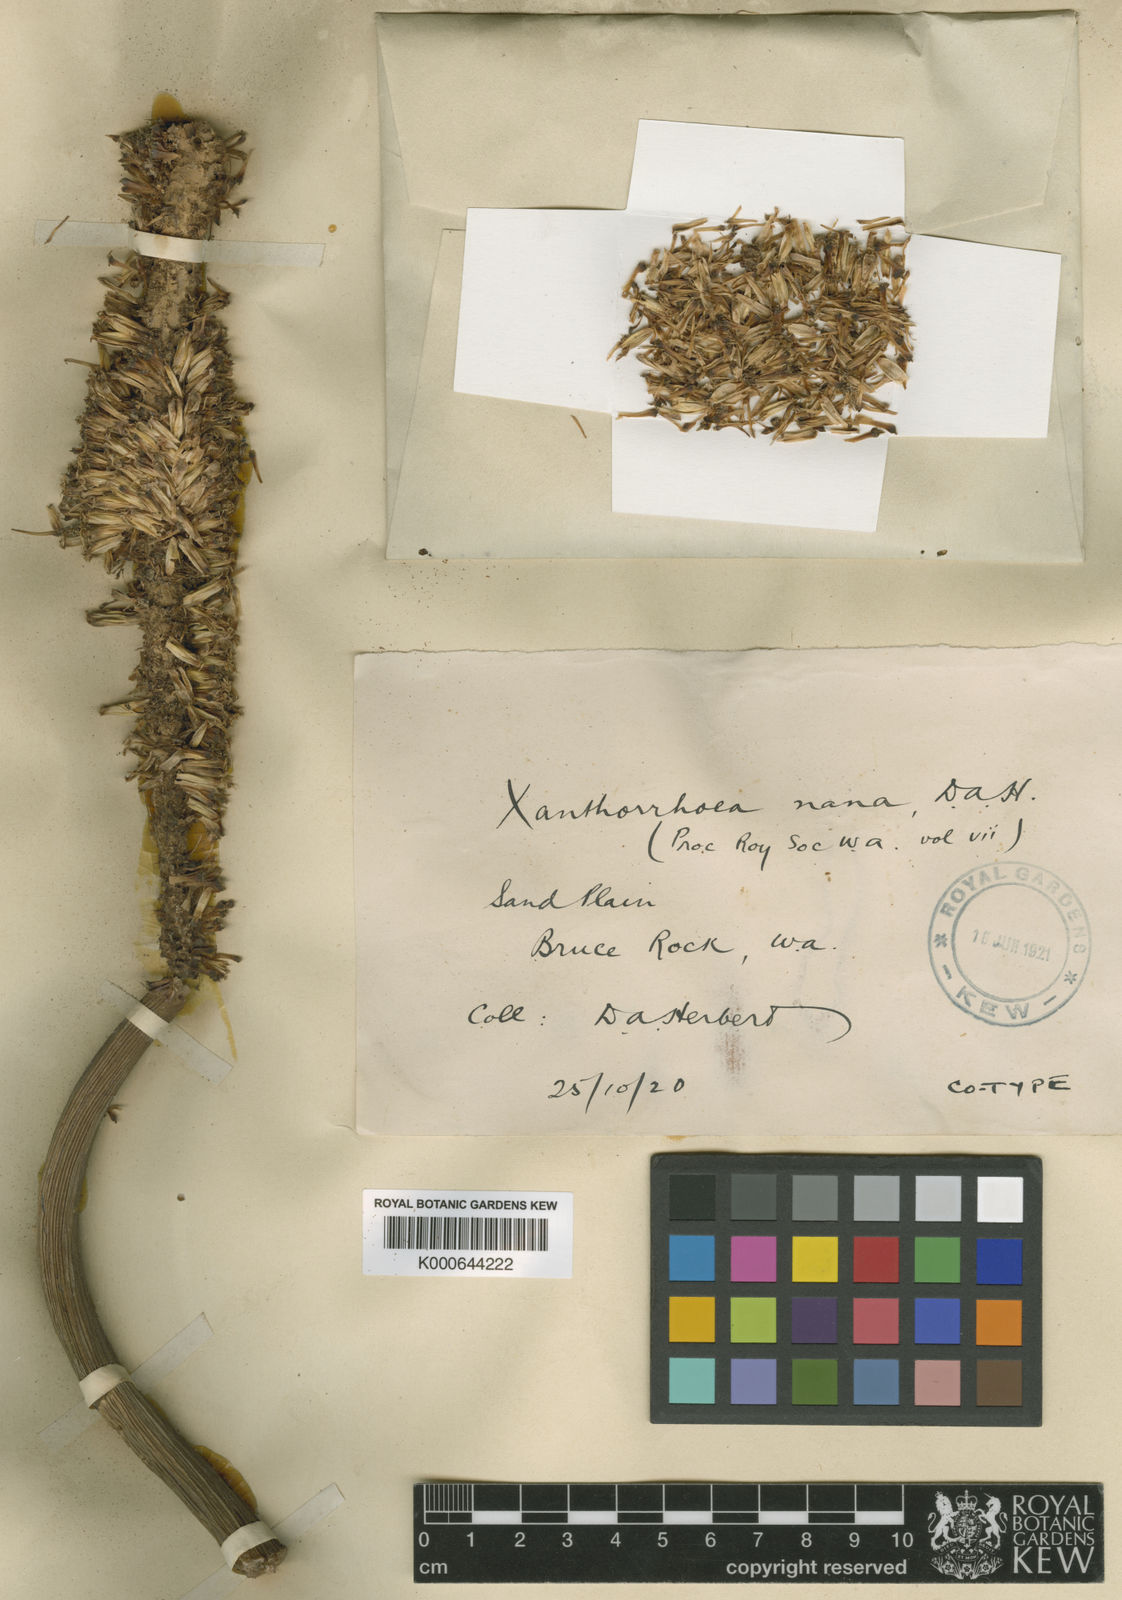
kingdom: Plantae
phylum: Tracheophyta
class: Liliopsida
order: Asparagales
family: Asphodelaceae
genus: Xanthorrhoea
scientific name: Xanthorrhoea nana
